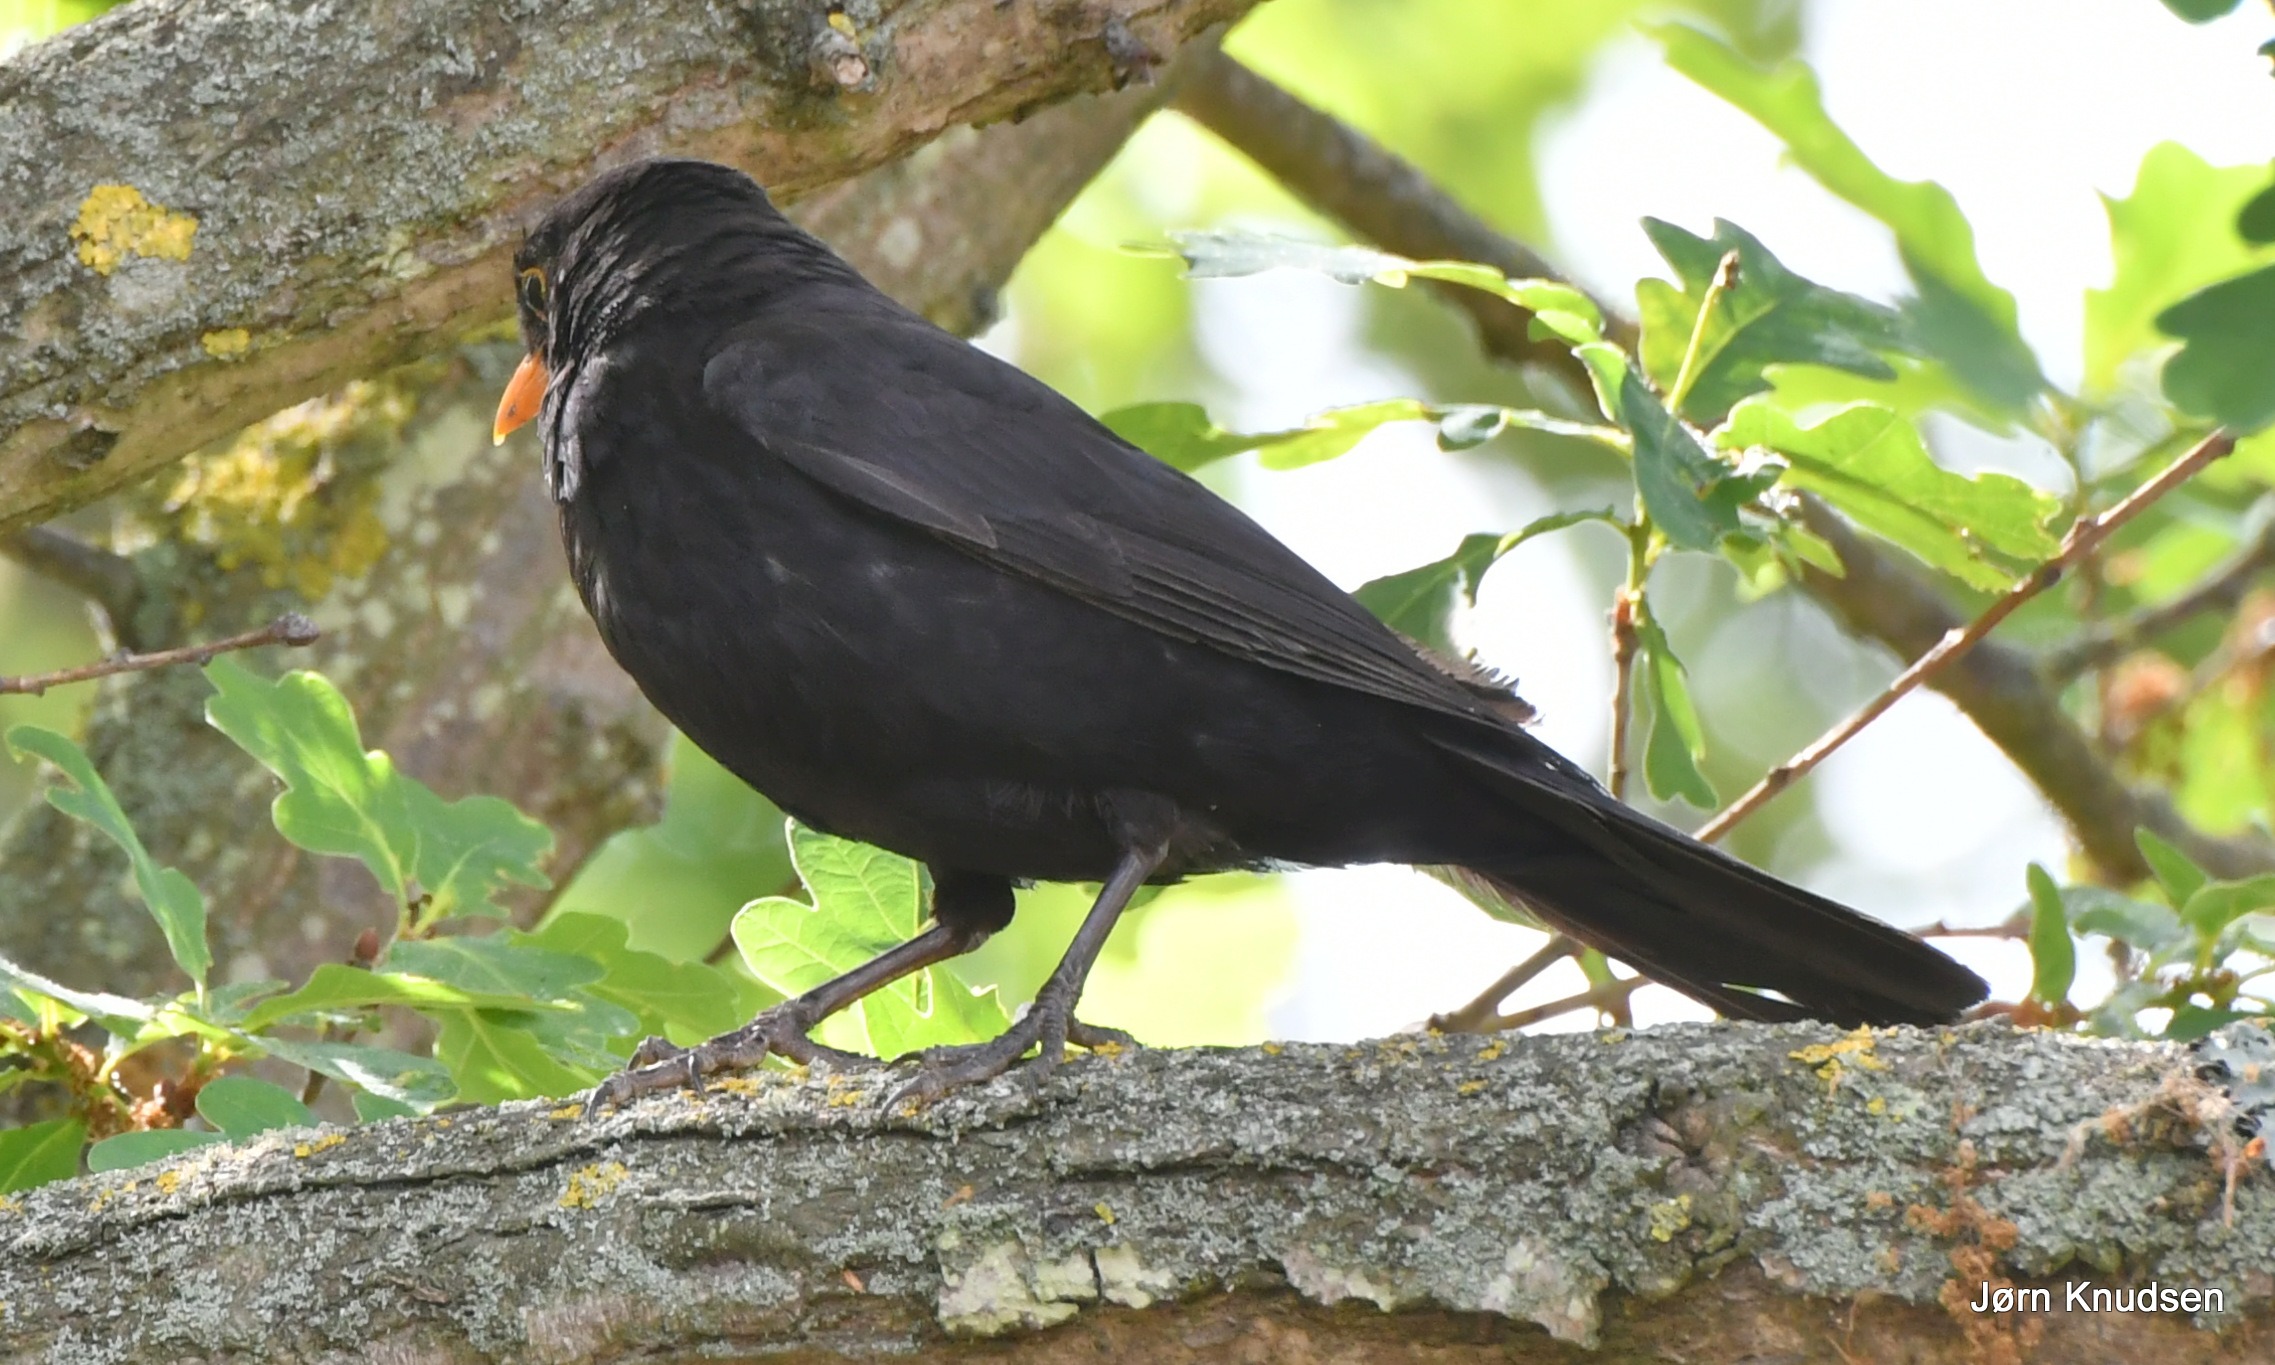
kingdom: Animalia
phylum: Chordata
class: Aves
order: Passeriformes
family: Turdidae
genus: Turdus
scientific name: Turdus merula
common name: Solsort
